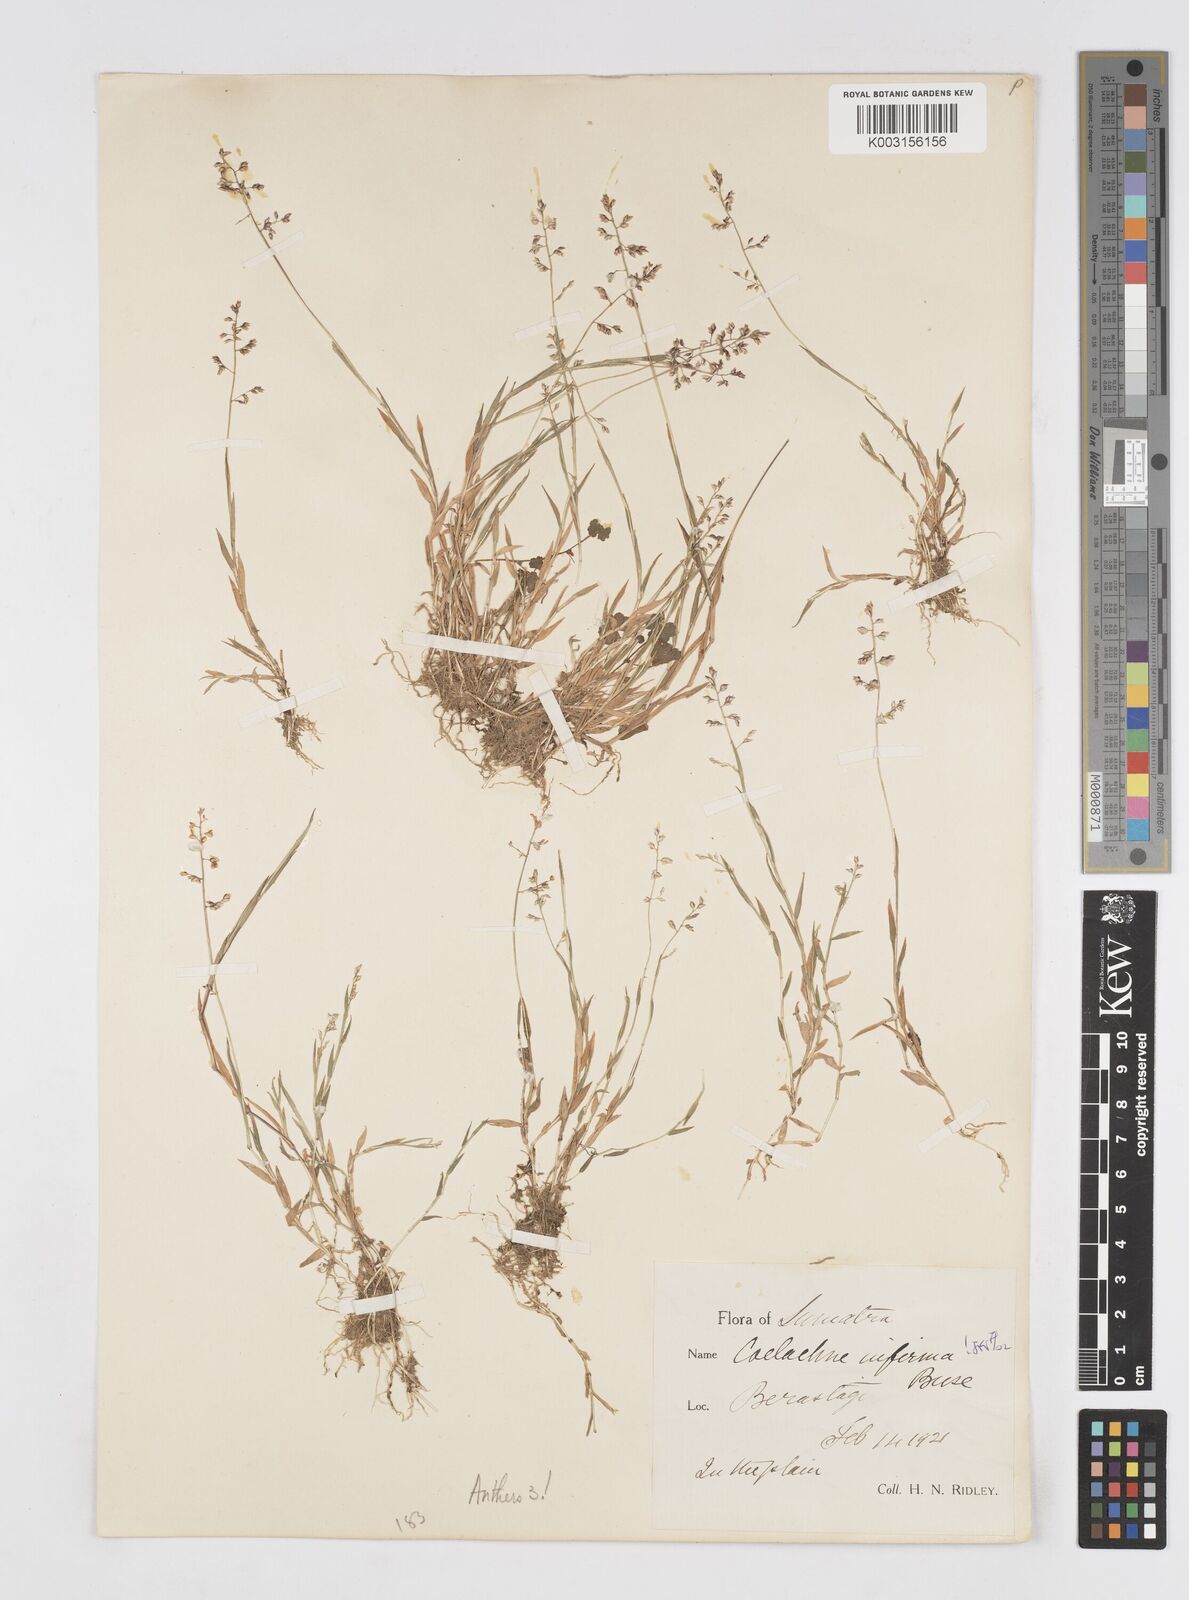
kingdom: Plantae
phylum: Tracheophyta
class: Liliopsida
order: Poales
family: Poaceae
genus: Coelachne
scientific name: Coelachne infirma
